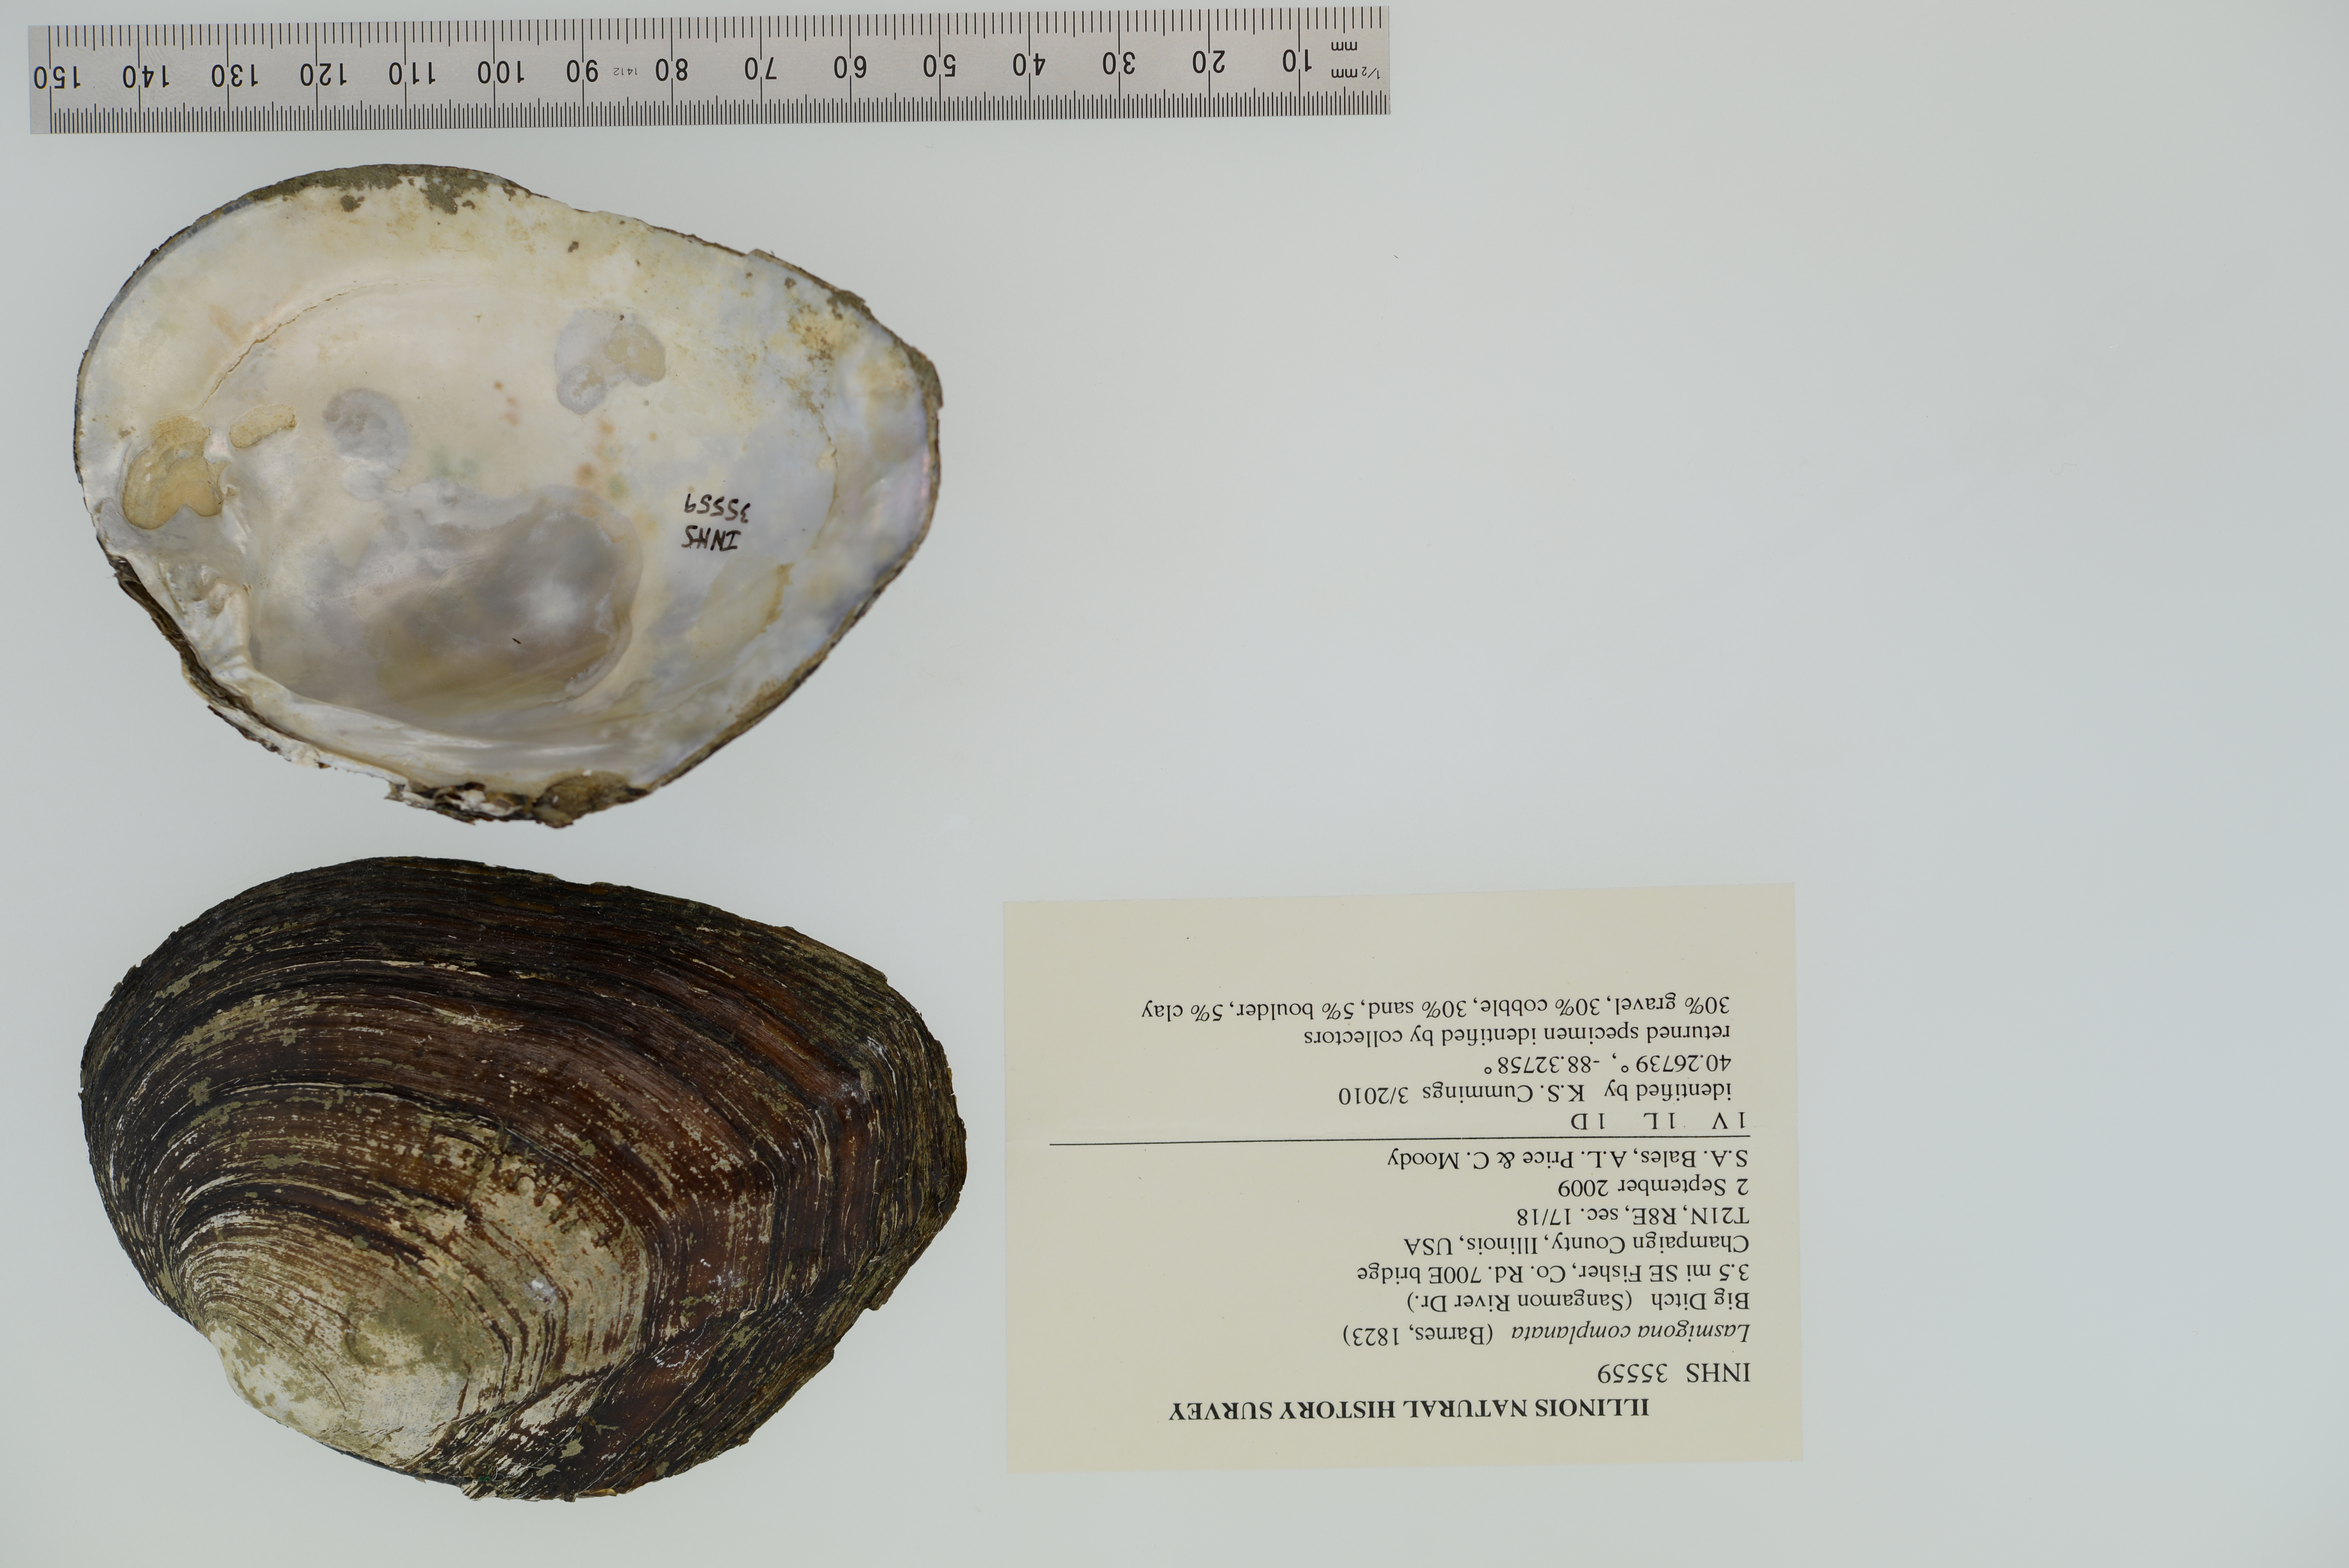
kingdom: Animalia
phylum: Mollusca
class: Bivalvia
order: Unionida
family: Unionidae
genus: Lasmigona
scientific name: Lasmigona complanata
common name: White heelsplitter
